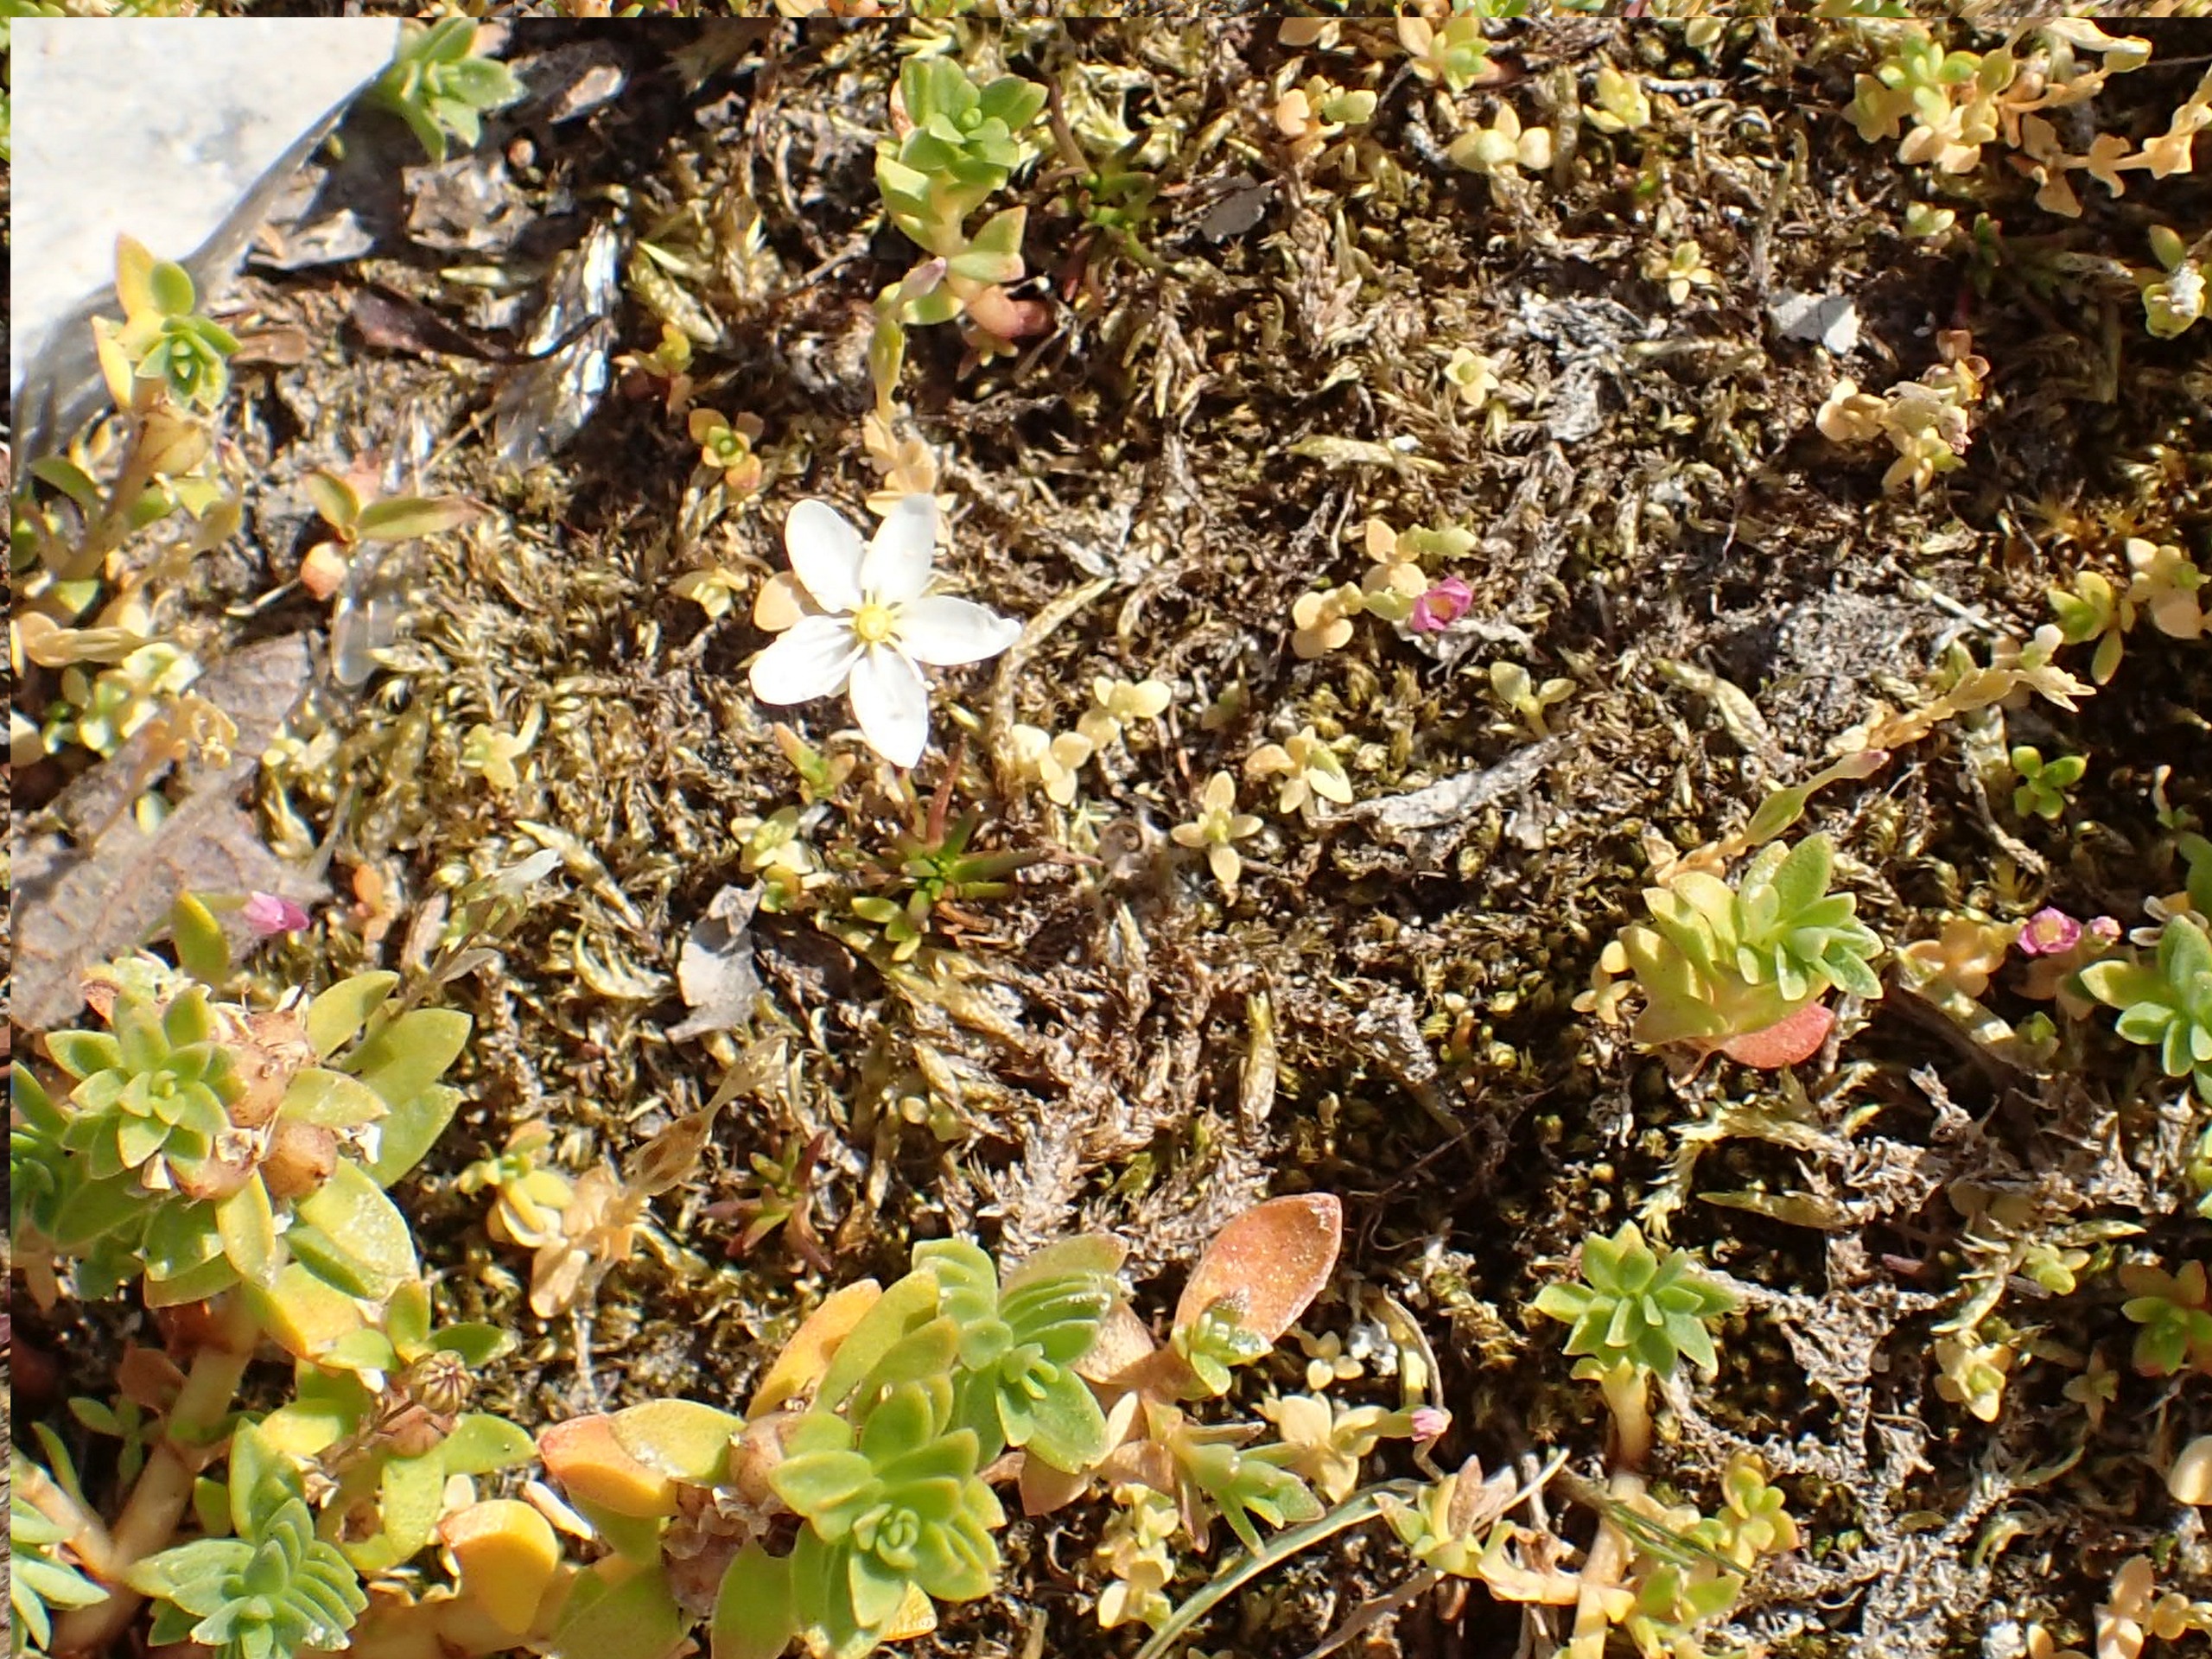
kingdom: Plantae
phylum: Tracheophyta
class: Magnoliopsida
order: Caryophyllales
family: Caryophyllaceae
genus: Sagina
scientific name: Sagina nodosa
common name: Knude-firling
